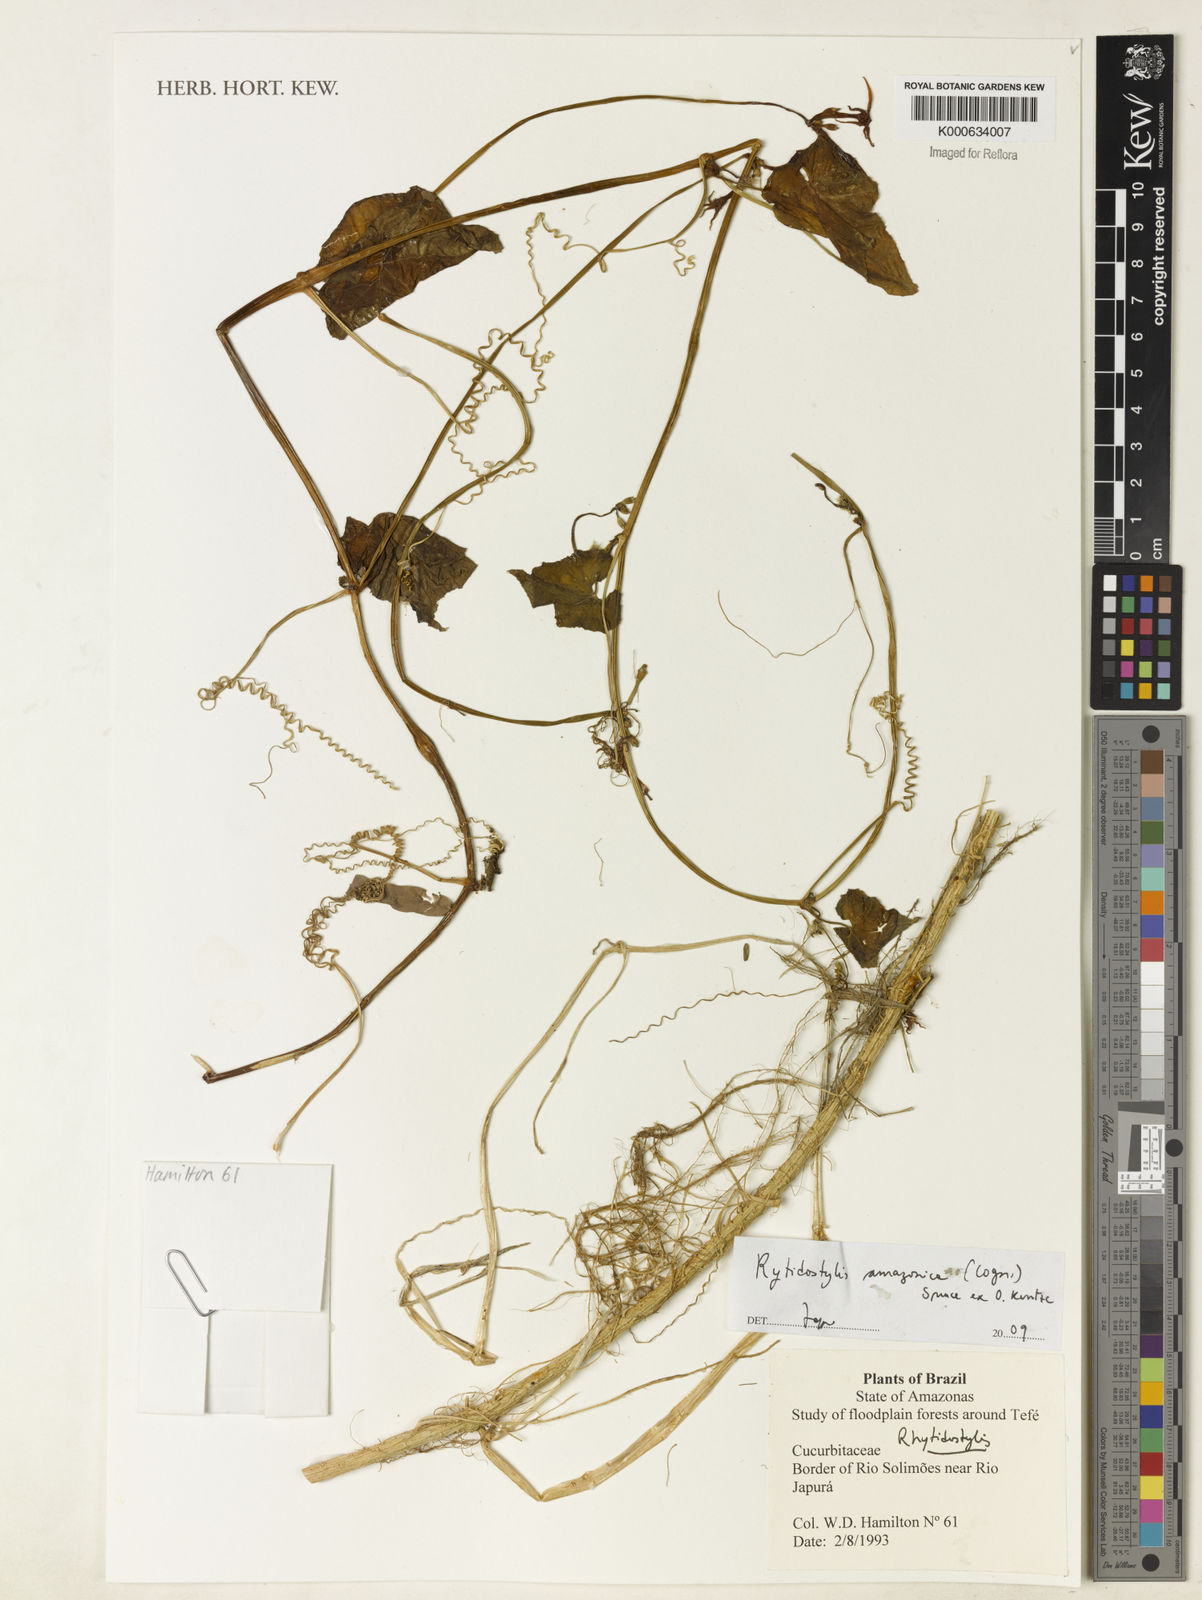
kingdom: Plantae
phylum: Tracheophyta
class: Magnoliopsida
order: Cucurbitales
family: Cucurbitaceae
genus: Cyclanthera
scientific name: Cyclanthera carthagenensis
